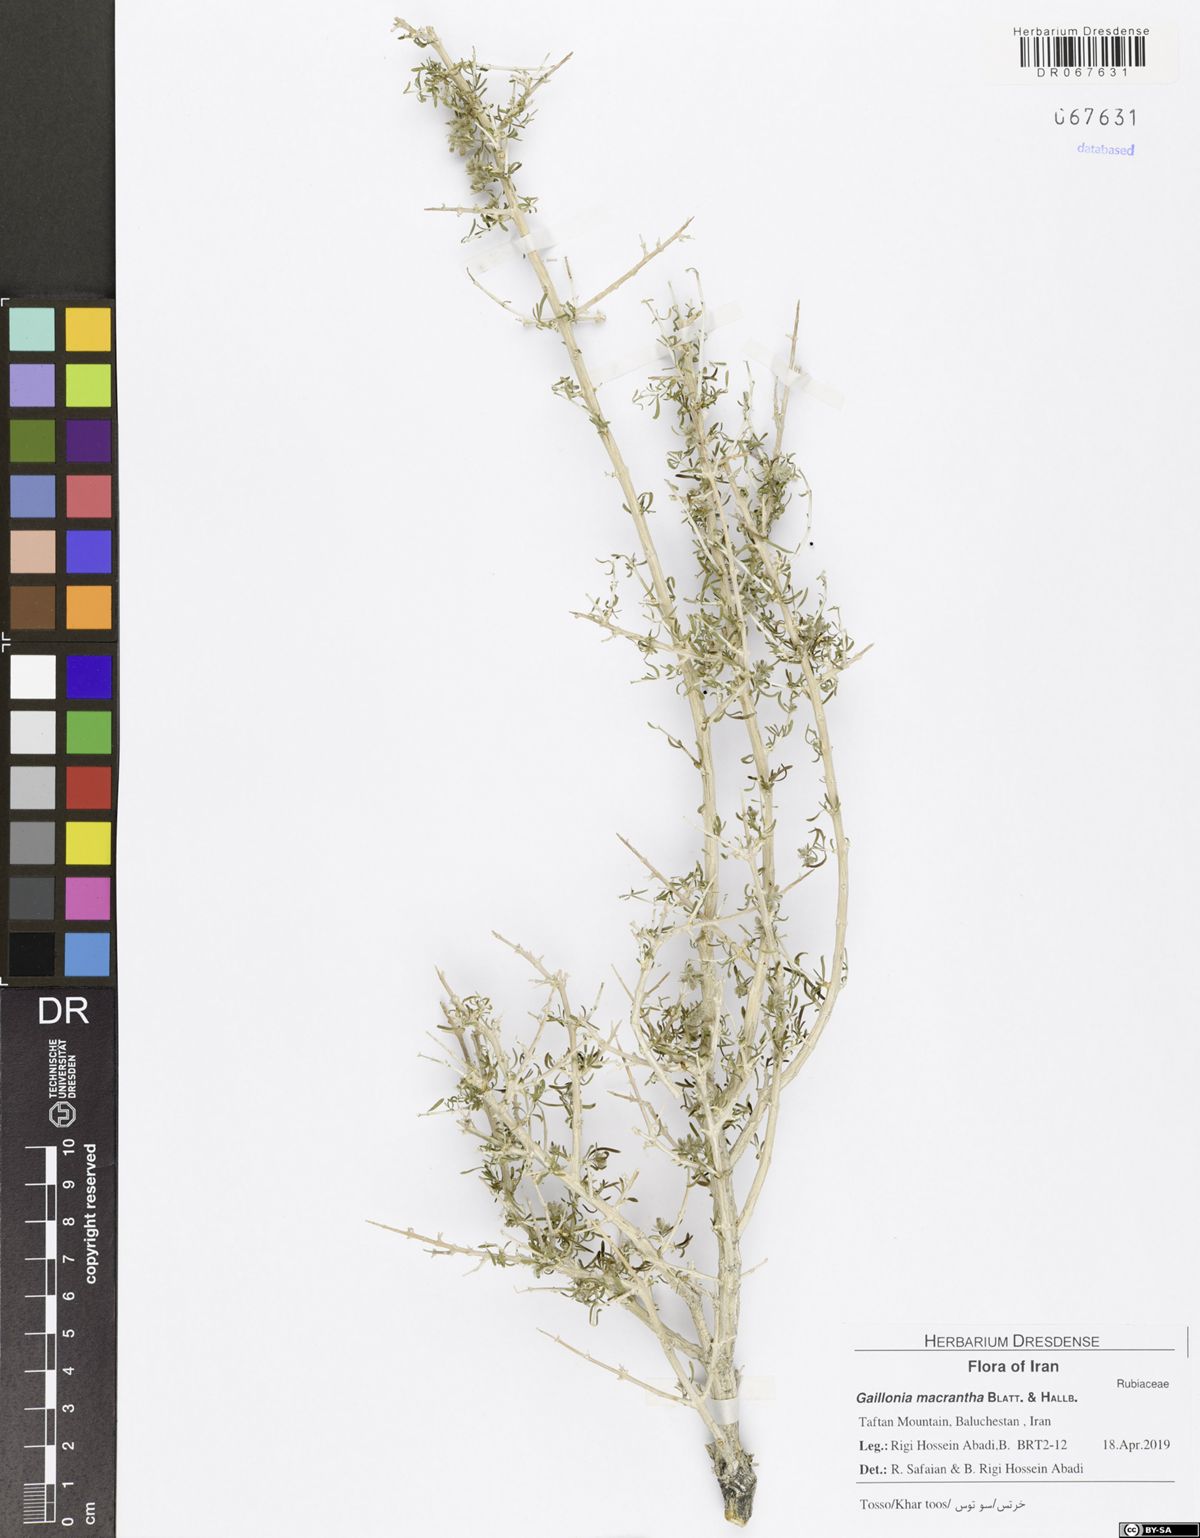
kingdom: Plantae
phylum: Tracheophyta
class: Magnoliopsida
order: Gentianales
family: Rubiaceae
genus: Plocama
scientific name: Plocama macrantha
